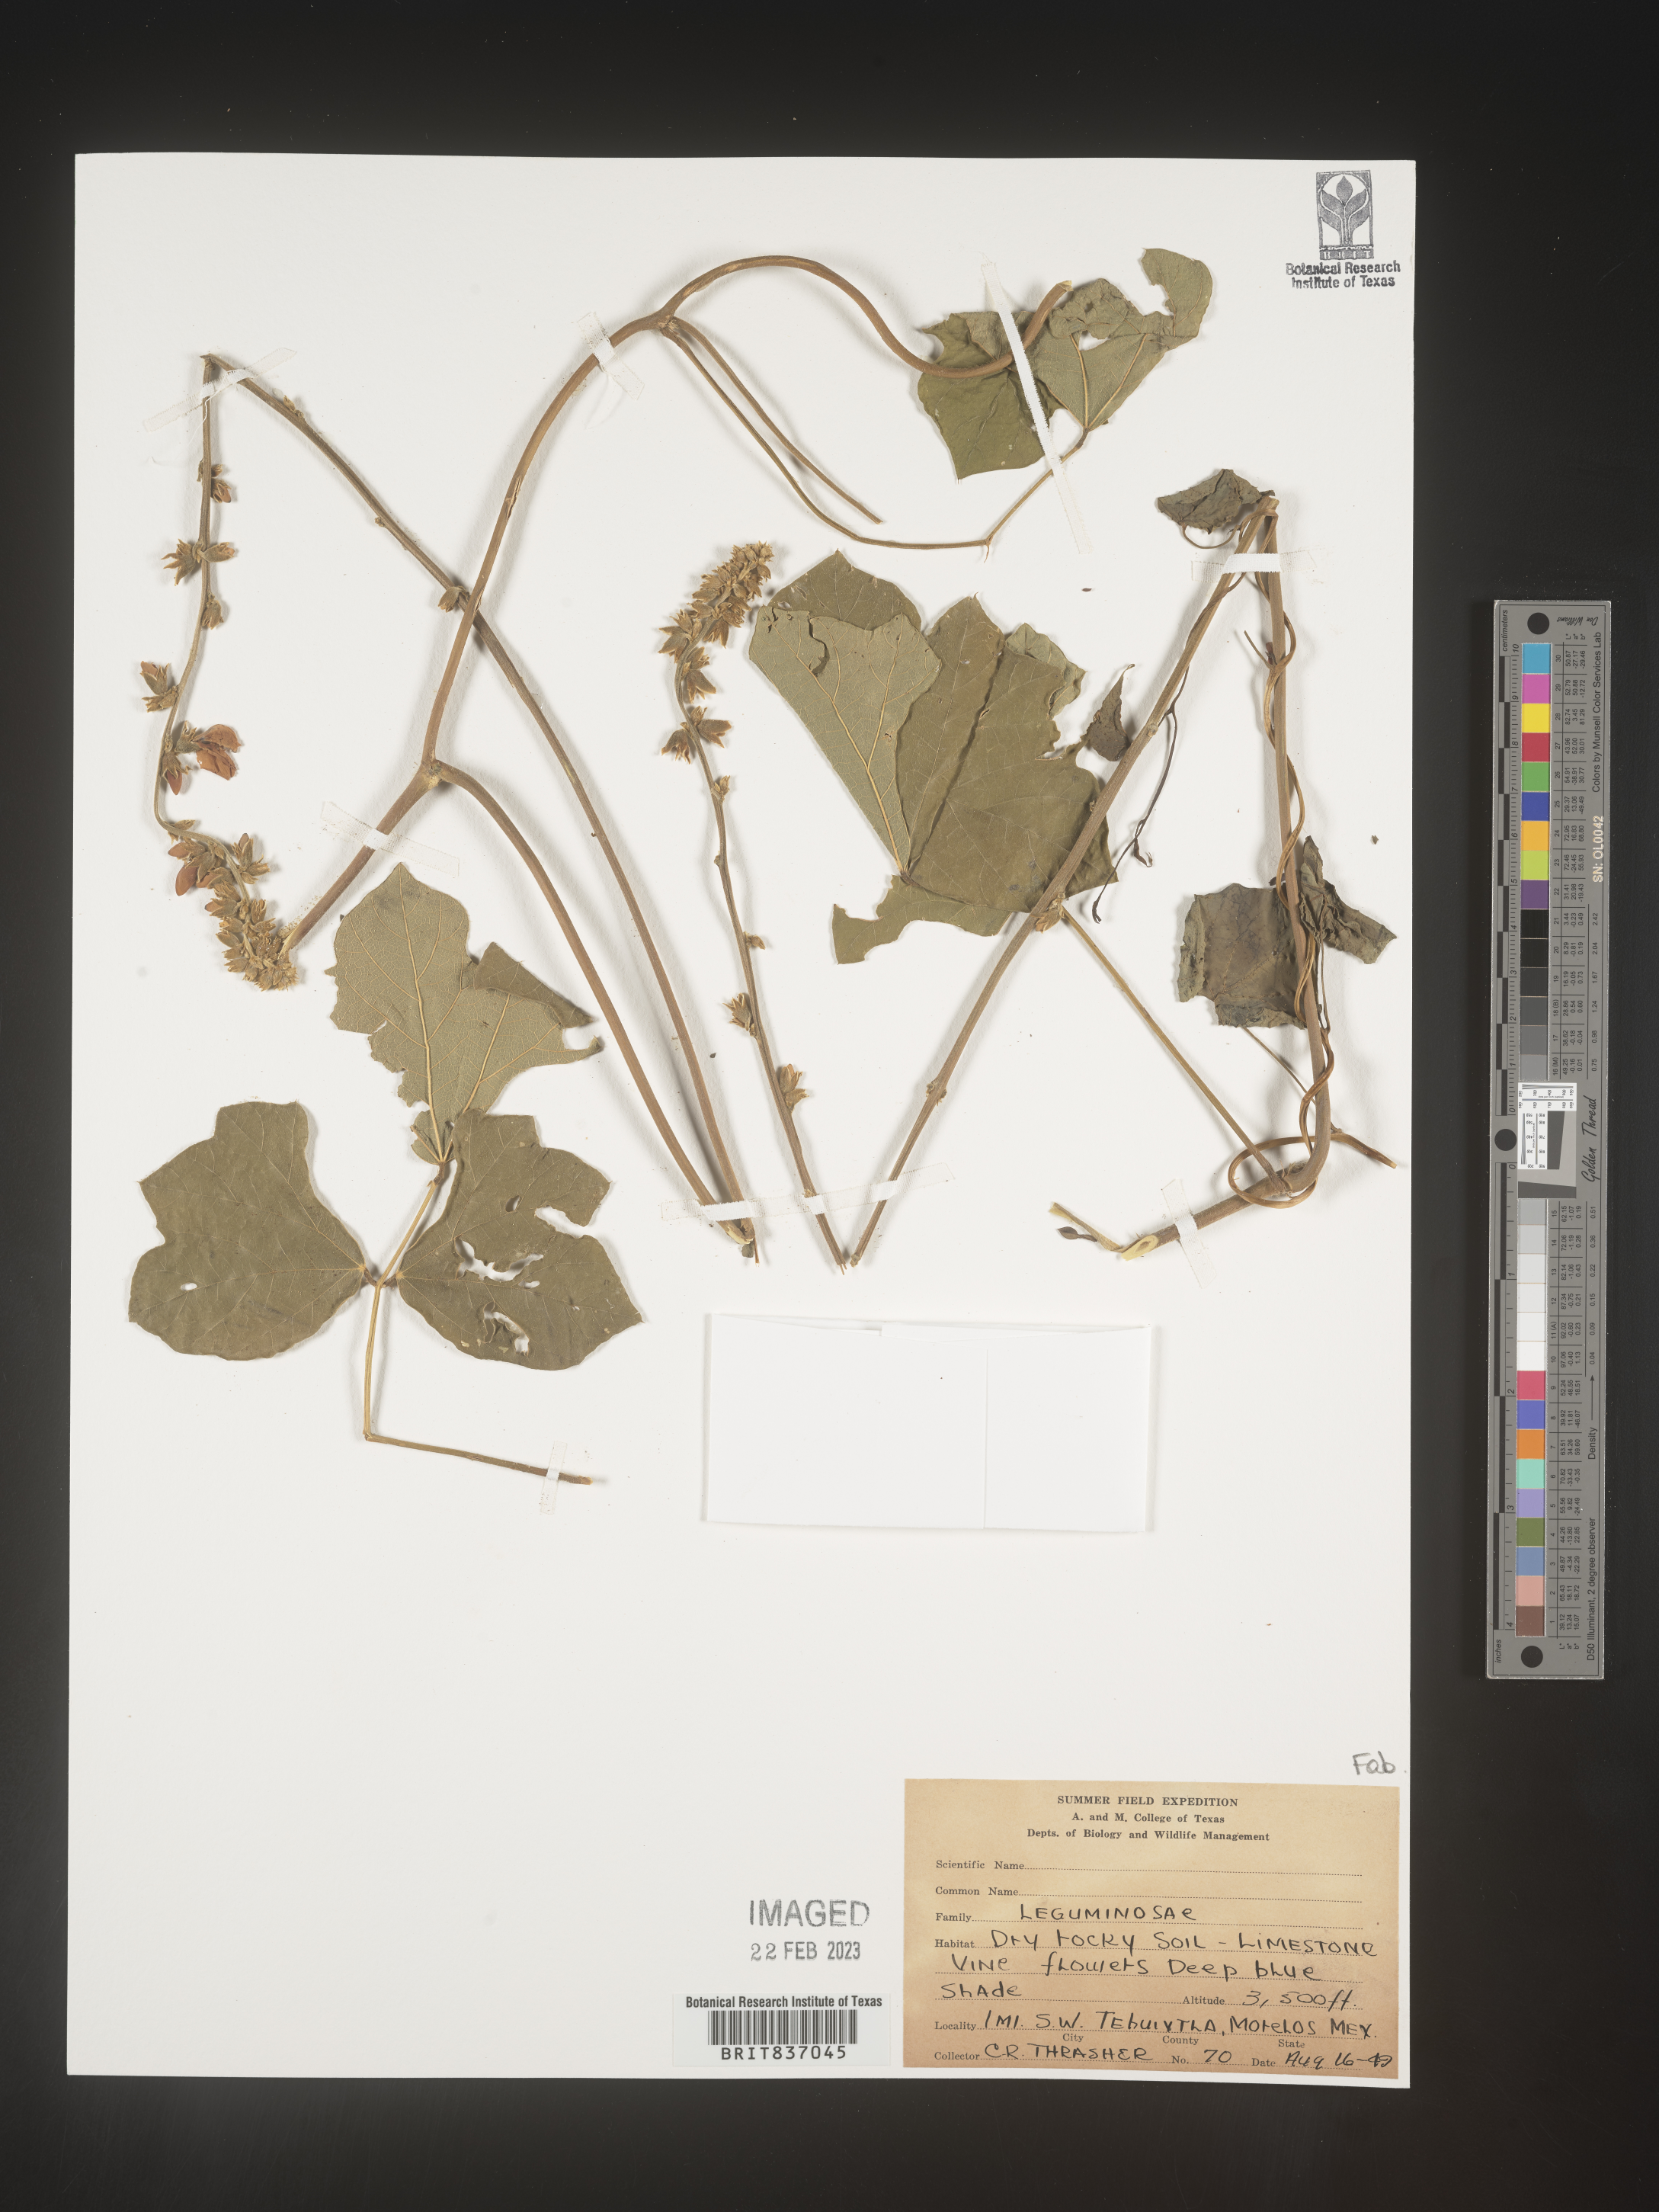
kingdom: Plantae
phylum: Tracheophyta
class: Magnoliopsida
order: Fabales
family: Fabaceae
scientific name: Fabaceae
